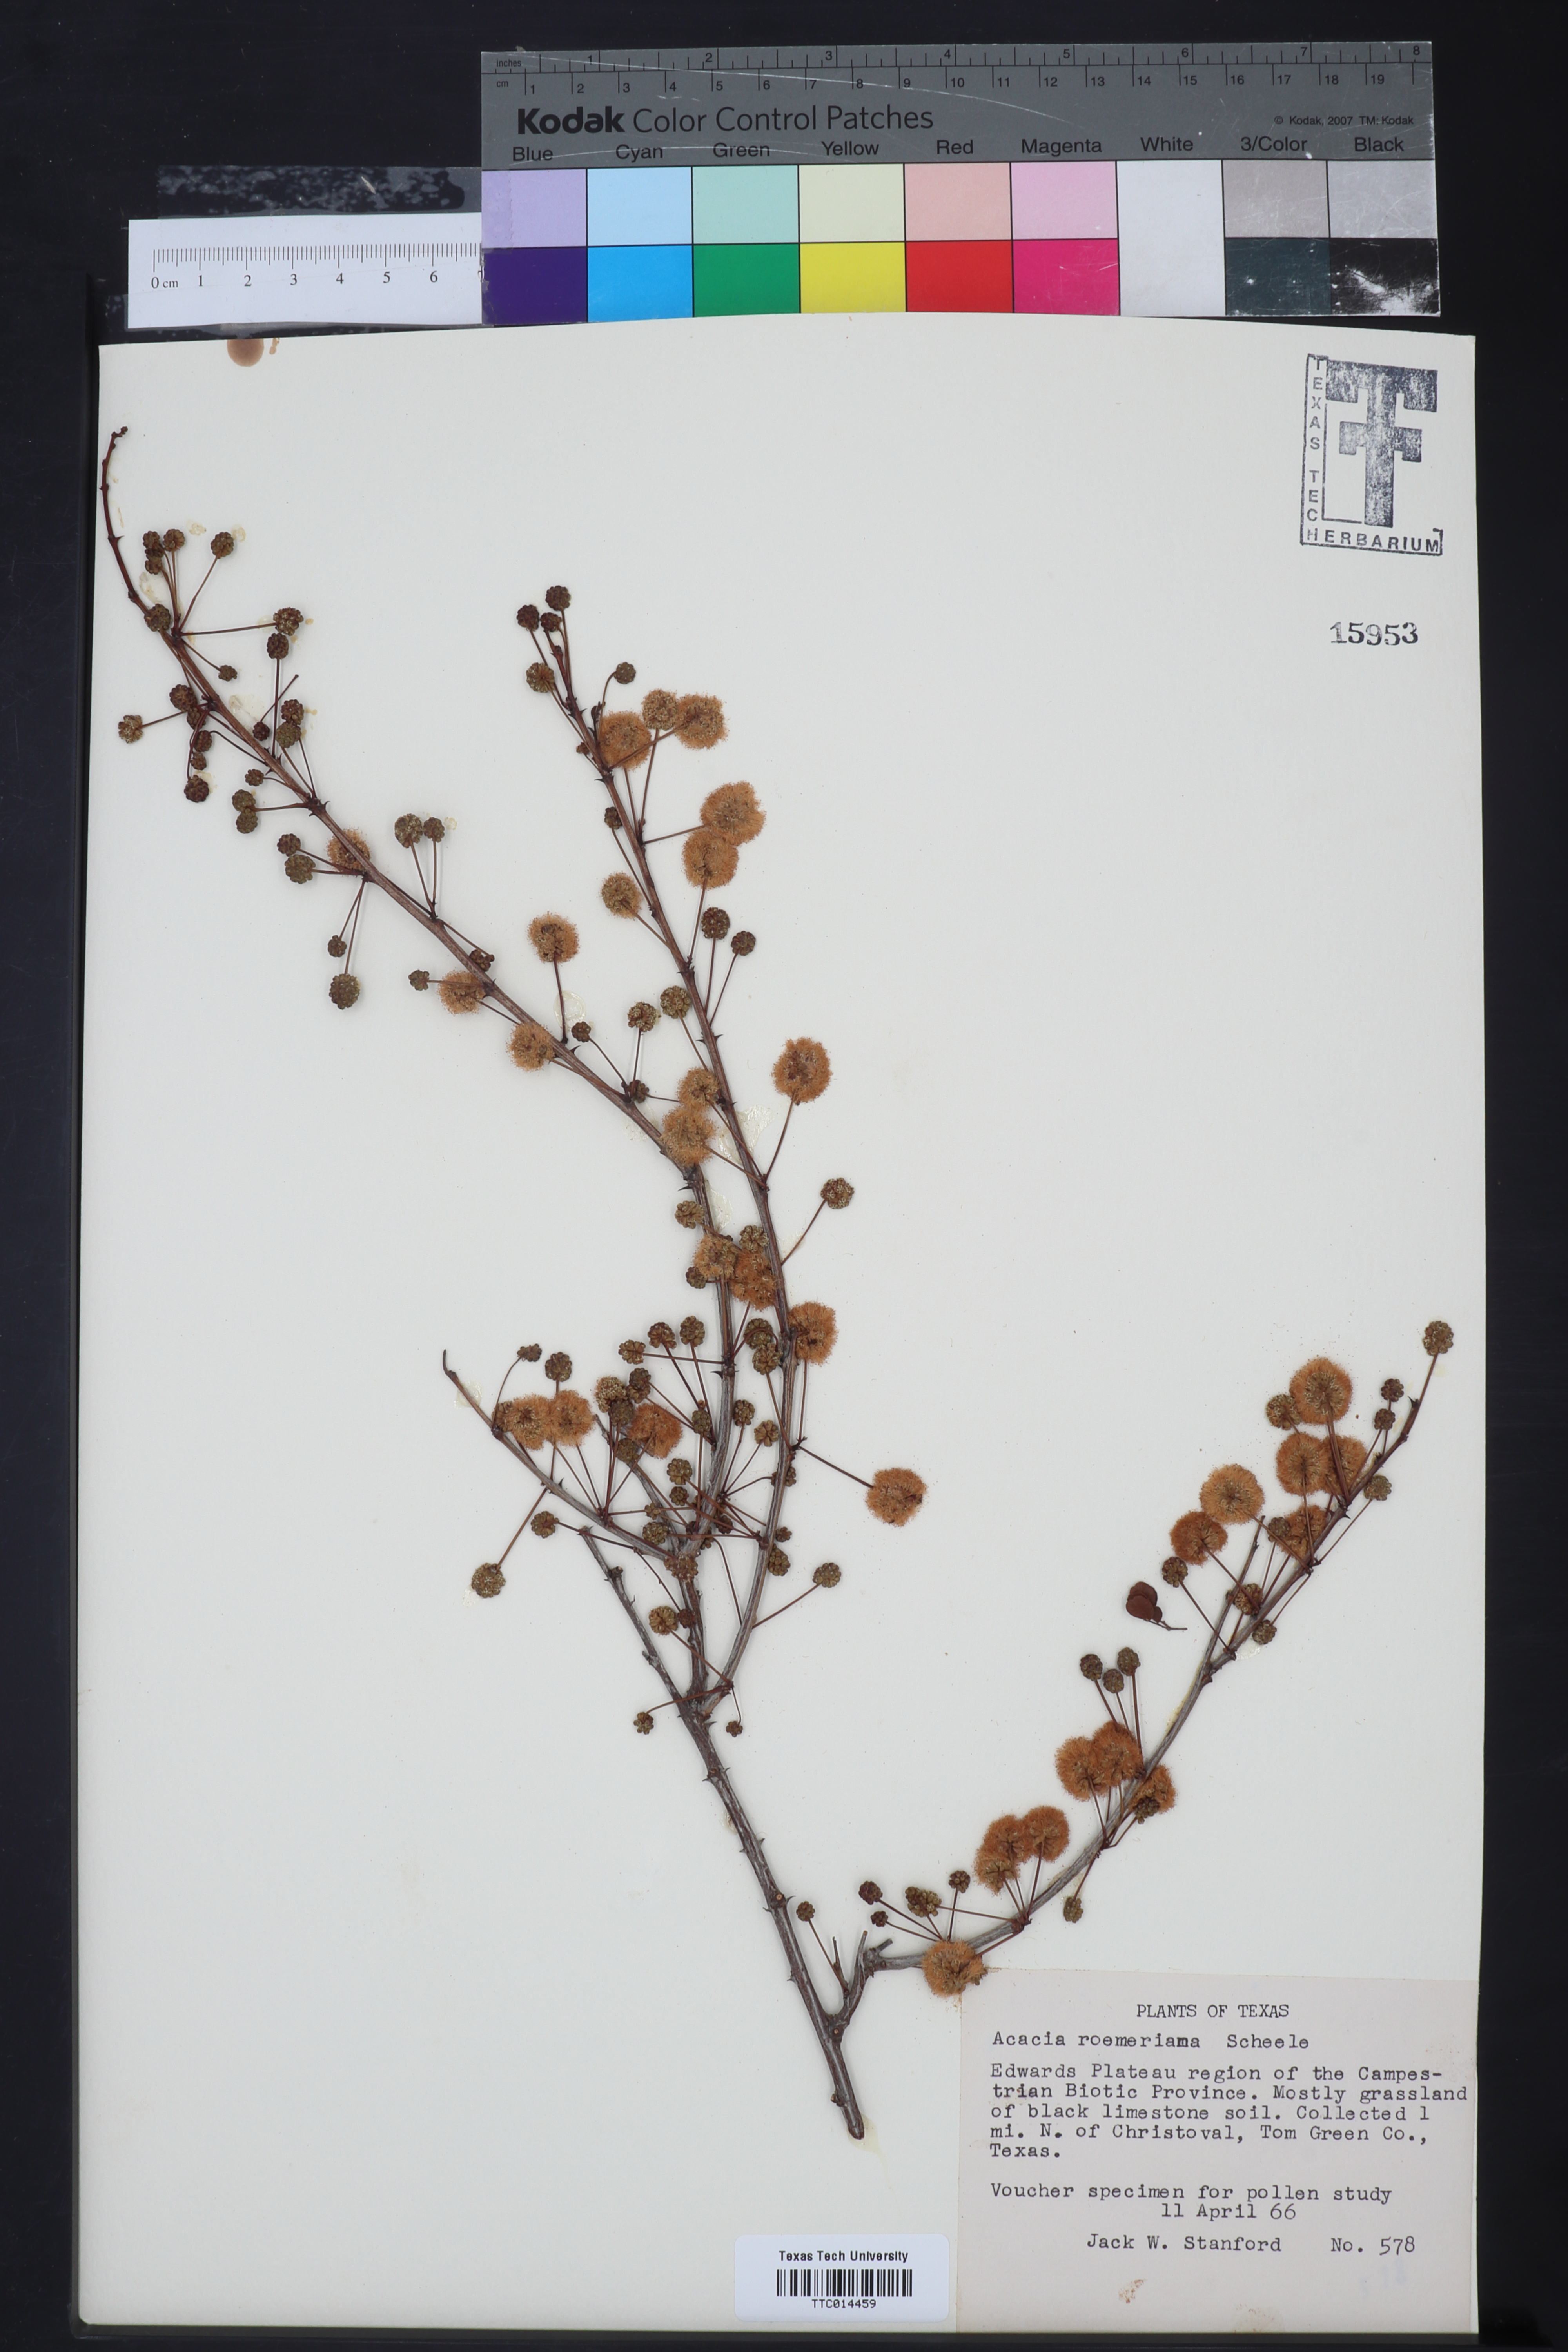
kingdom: Plantae
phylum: Tracheophyta
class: Magnoliopsida
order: Fabales
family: Fabaceae
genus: Senegalia
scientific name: Senegalia roemeriana
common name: Roemer's acacia
